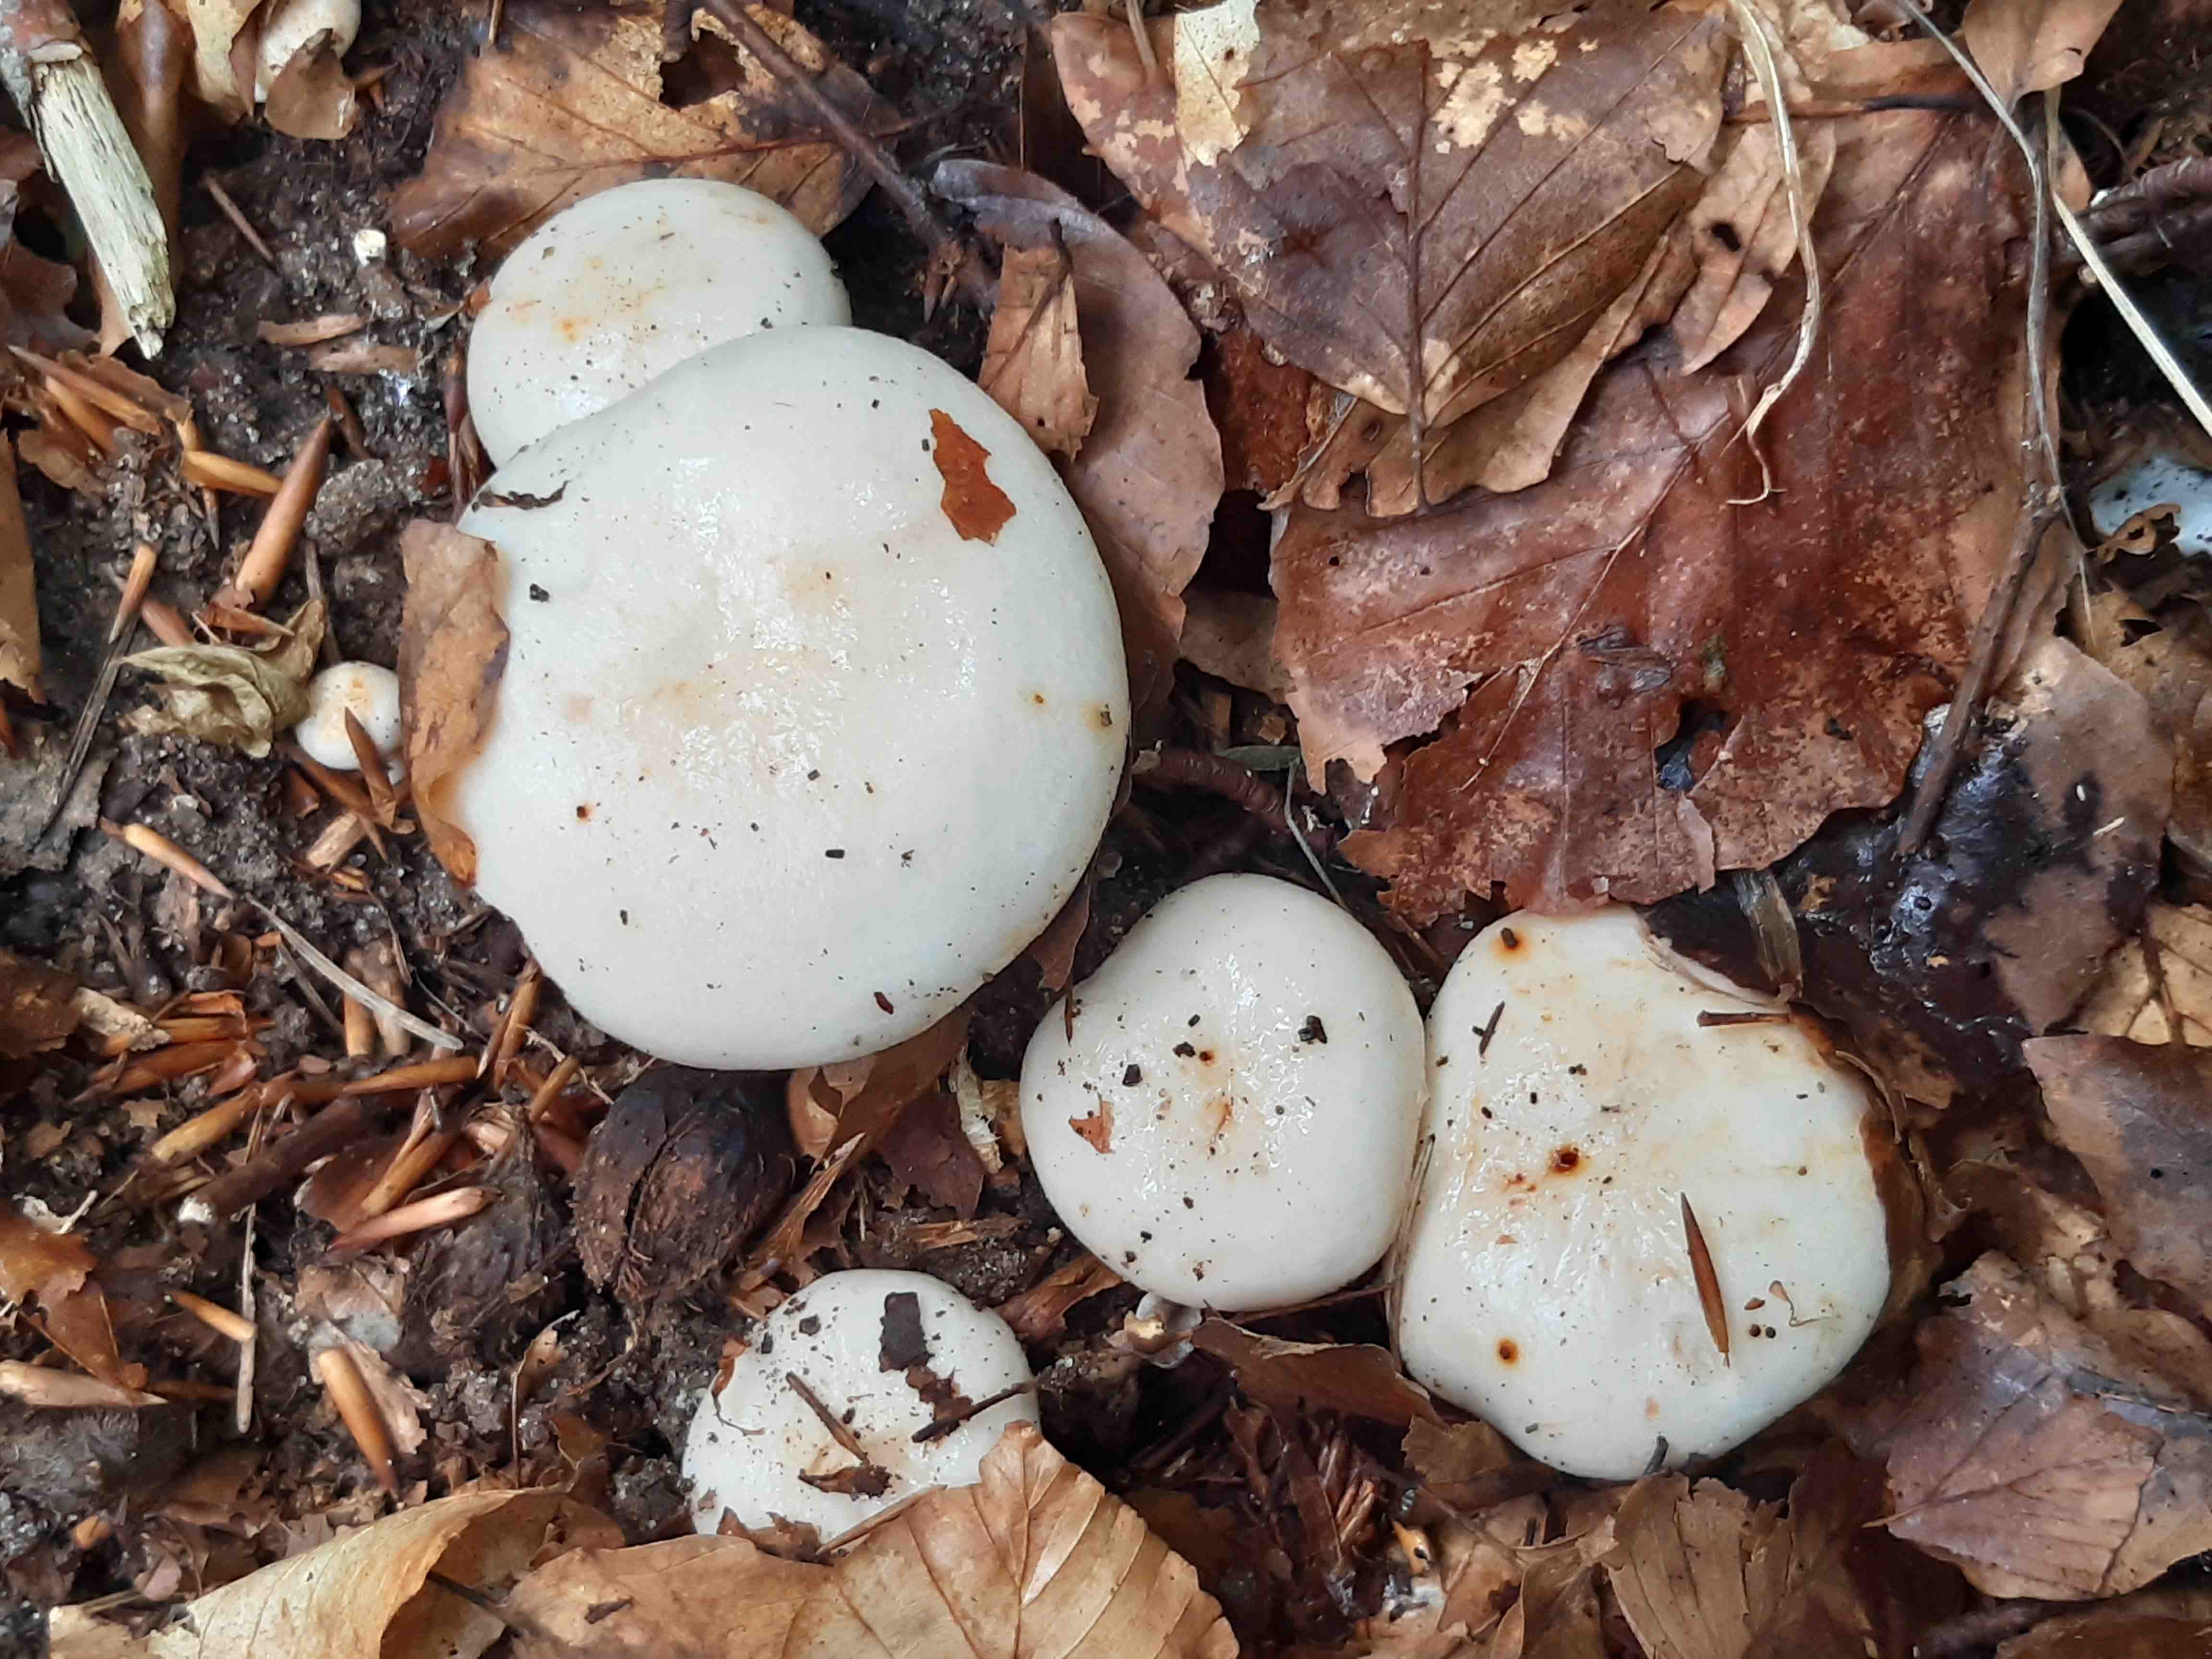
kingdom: Fungi
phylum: Basidiomycota
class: Agaricomycetes
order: Russulales
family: Russulaceae
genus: Lactarius
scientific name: Lactarius pallidus
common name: bleg mælkehat
